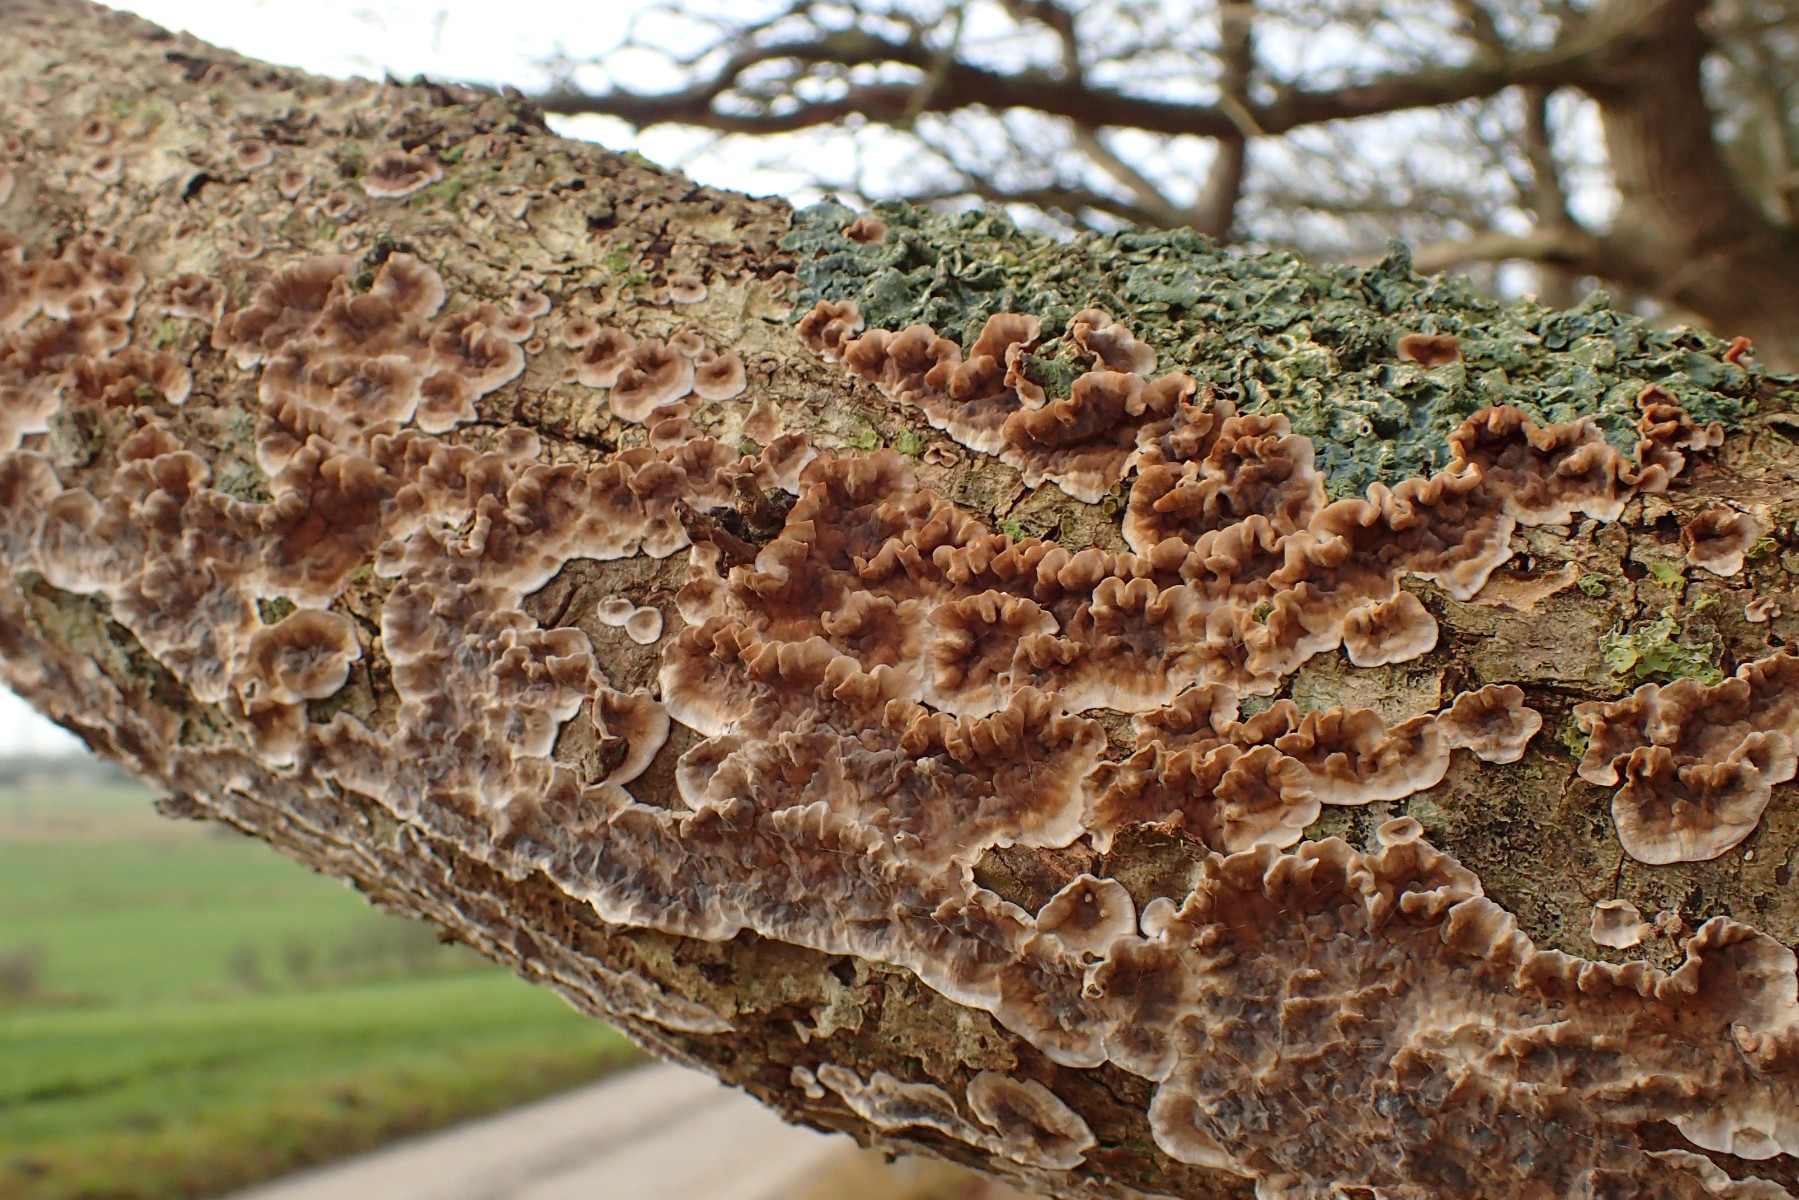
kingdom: Fungi
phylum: Basidiomycota
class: Agaricomycetes
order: Russulales
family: Stereaceae
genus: Stereum
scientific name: Stereum gausapatum
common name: tynd lædersvamp
